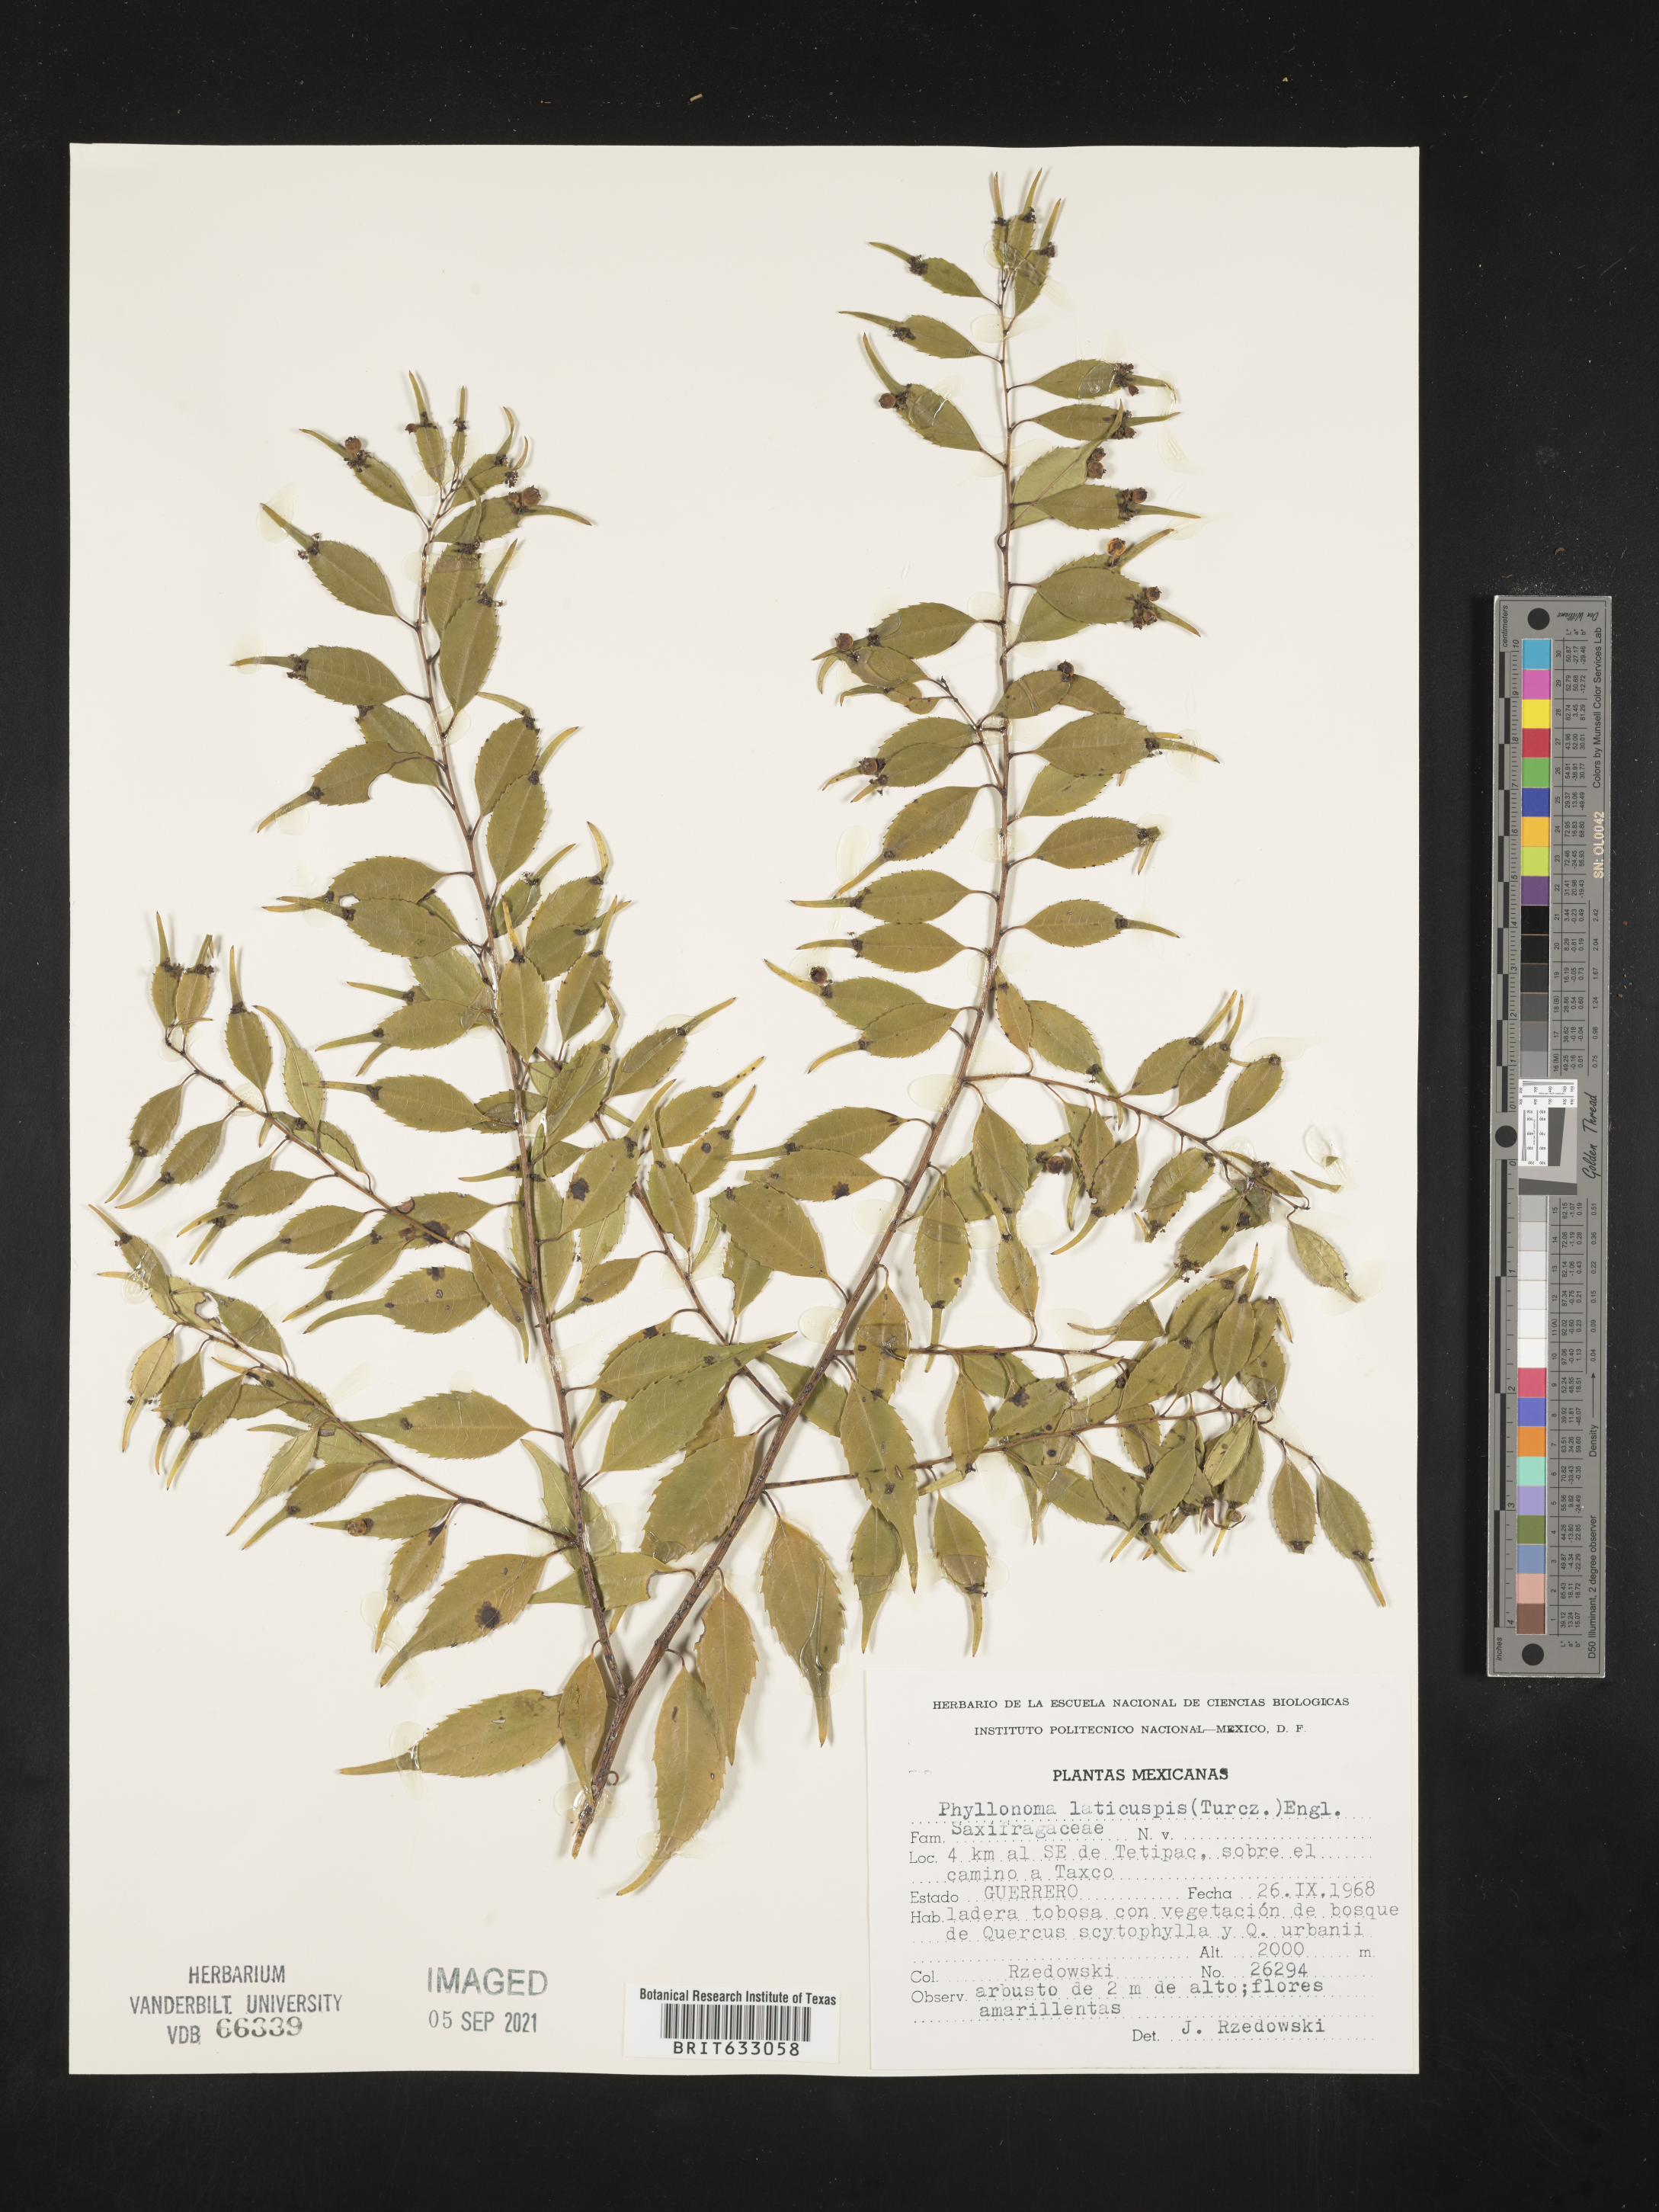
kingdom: Plantae
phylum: Tracheophyta
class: Magnoliopsida
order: Aquifoliales
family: Phyllonomaceae
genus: Phyllonoma
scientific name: Phyllonoma laticuspis
